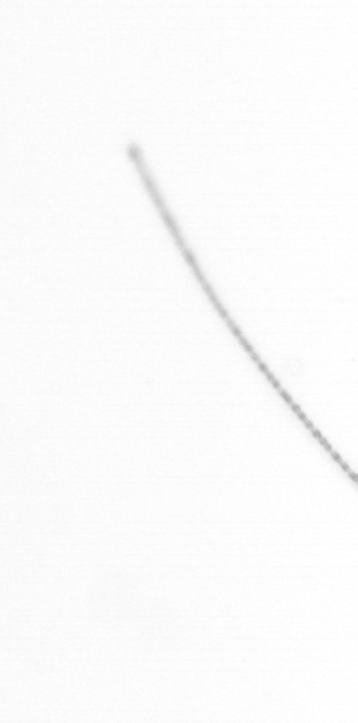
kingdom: Chromista
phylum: Ochrophyta
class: Bacillariophyceae
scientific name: Bacillariophyceae
